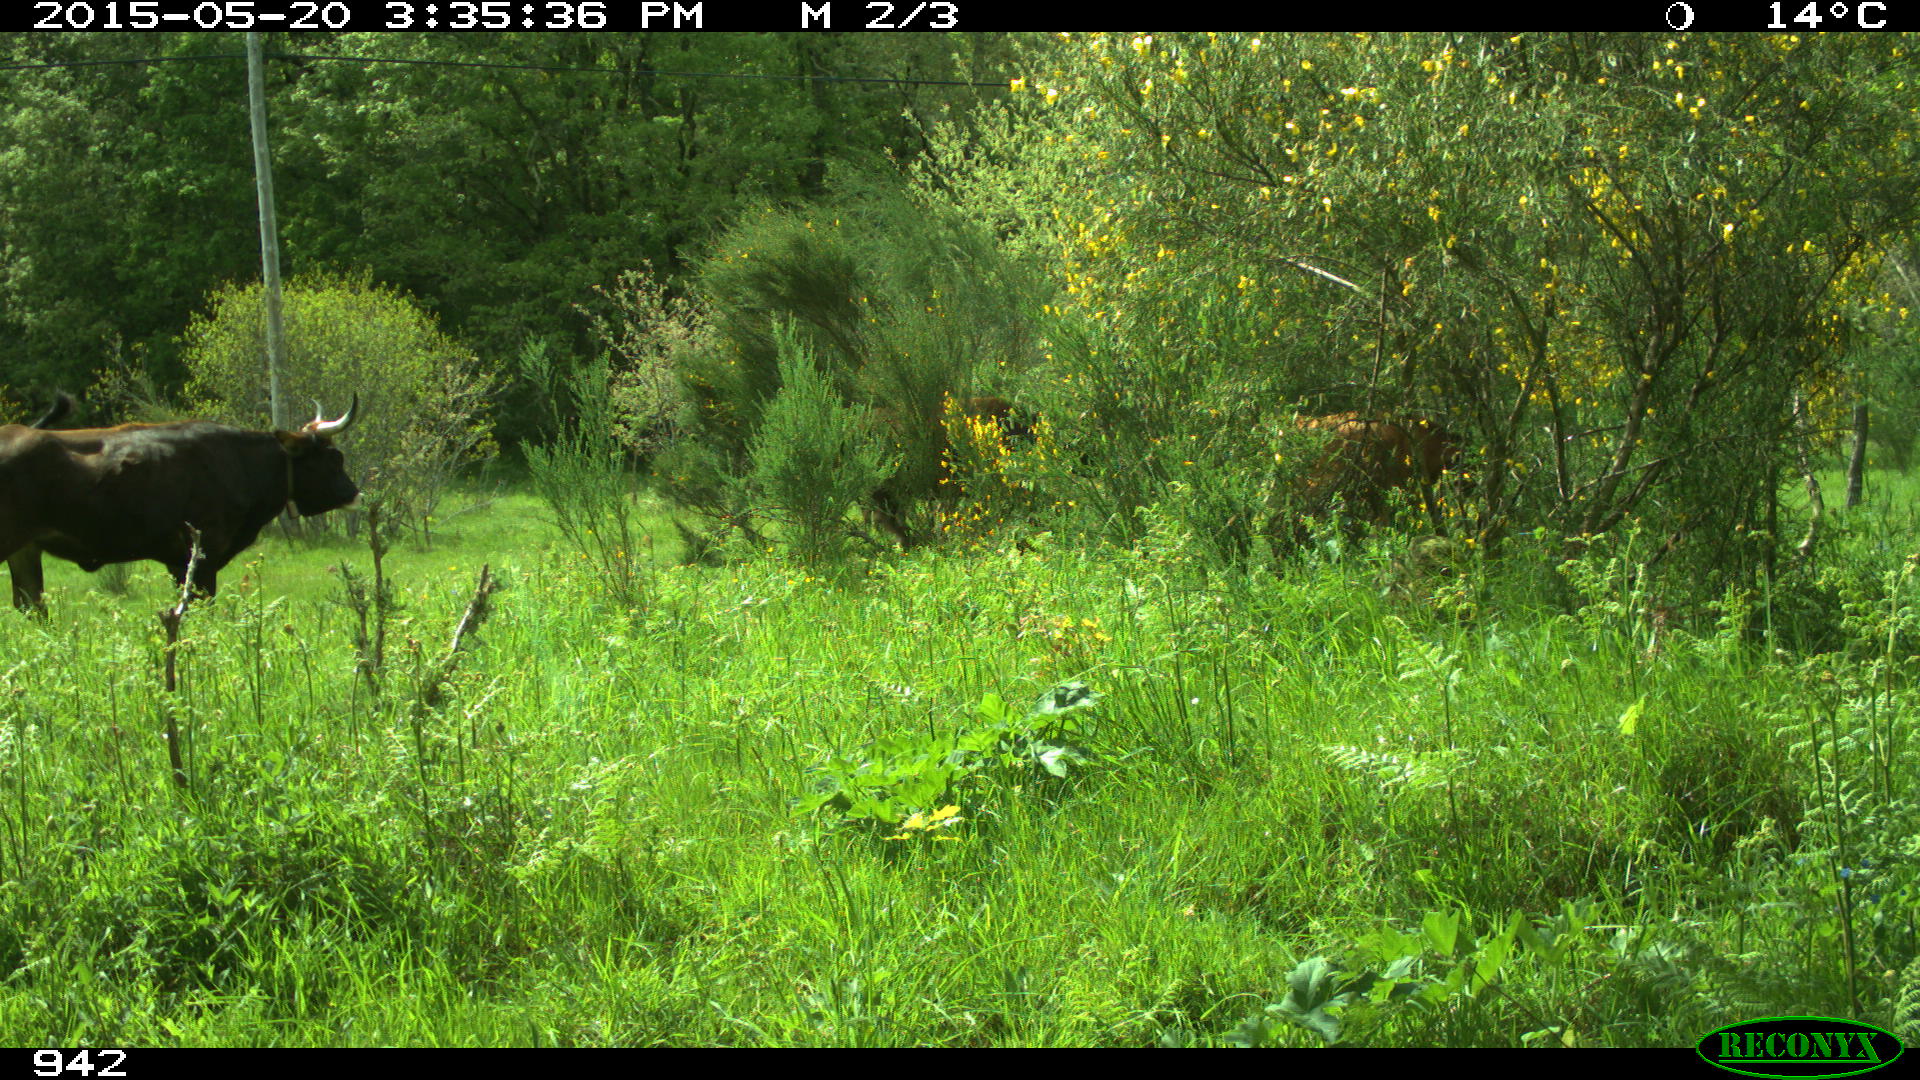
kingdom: Animalia
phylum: Chordata
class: Mammalia
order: Artiodactyla
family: Bovidae
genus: Bos
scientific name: Bos taurus
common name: Domesticated cattle
